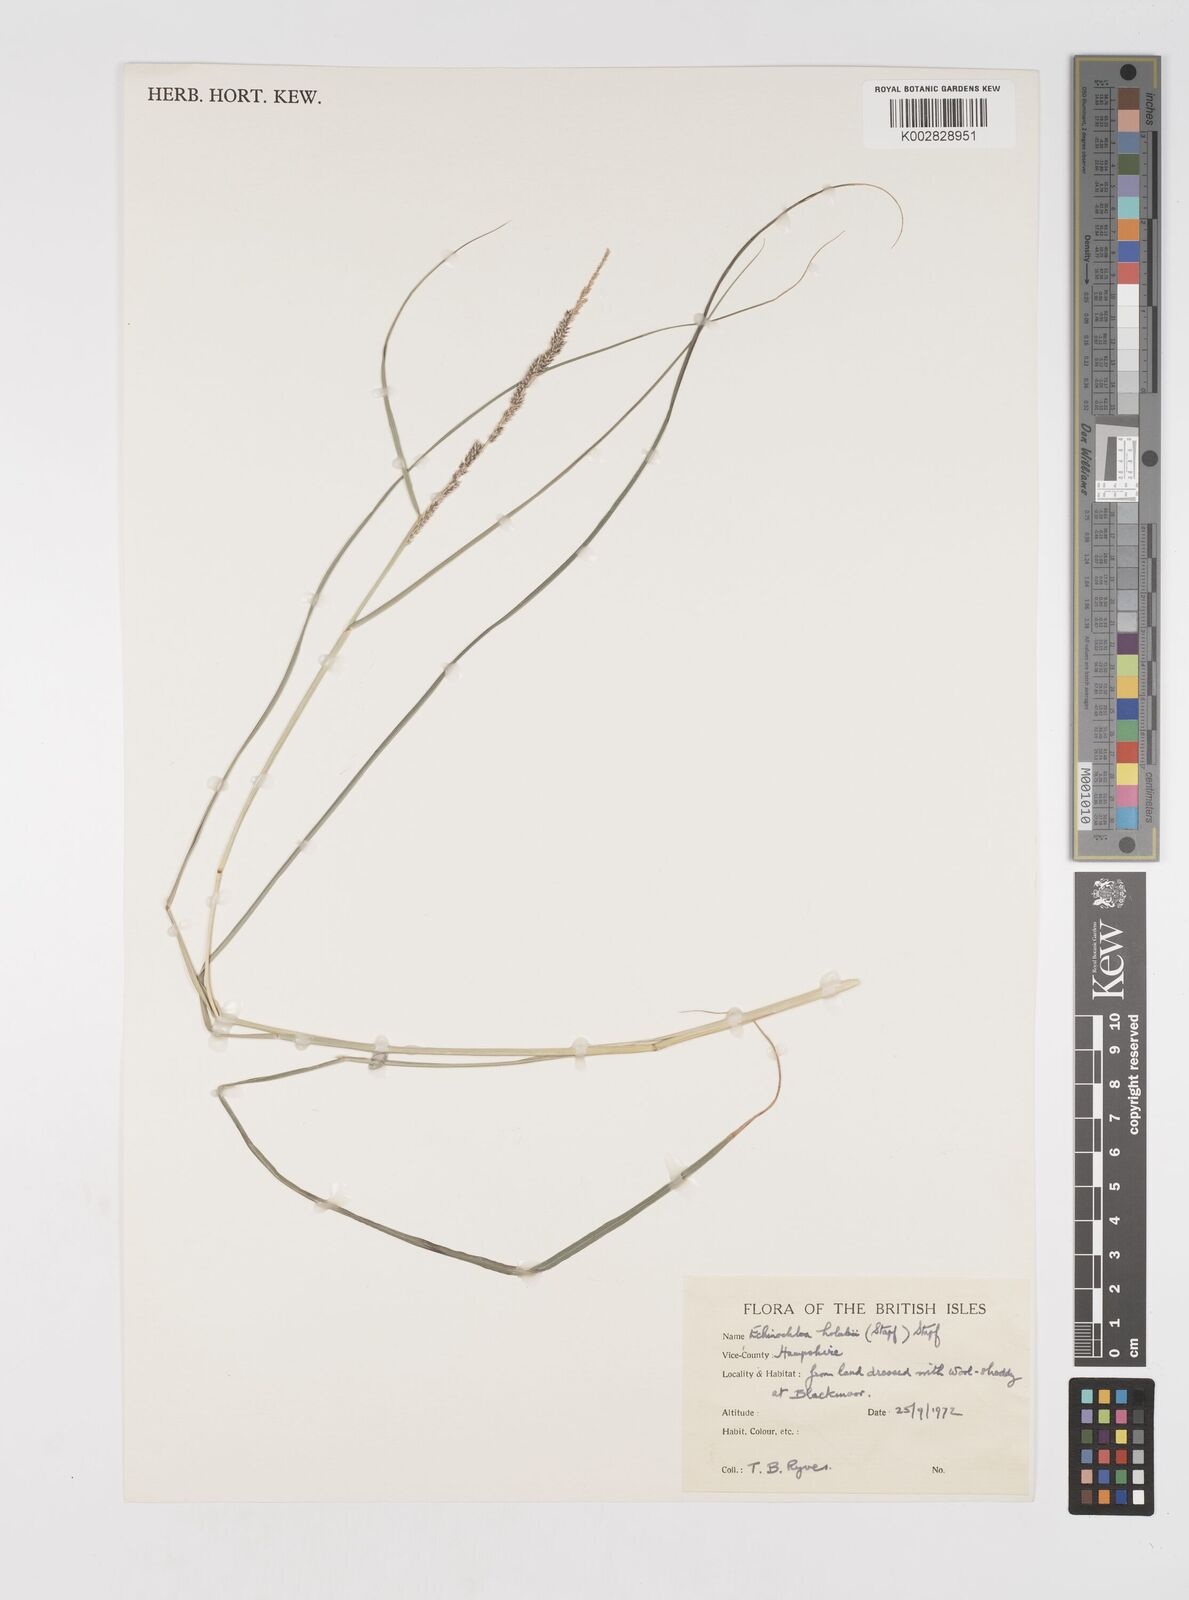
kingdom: Plantae
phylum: Tracheophyta
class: Liliopsida
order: Poales
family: Poaceae
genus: Echinochloa
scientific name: Echinochloa pyramidalis
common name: Antelope grass
